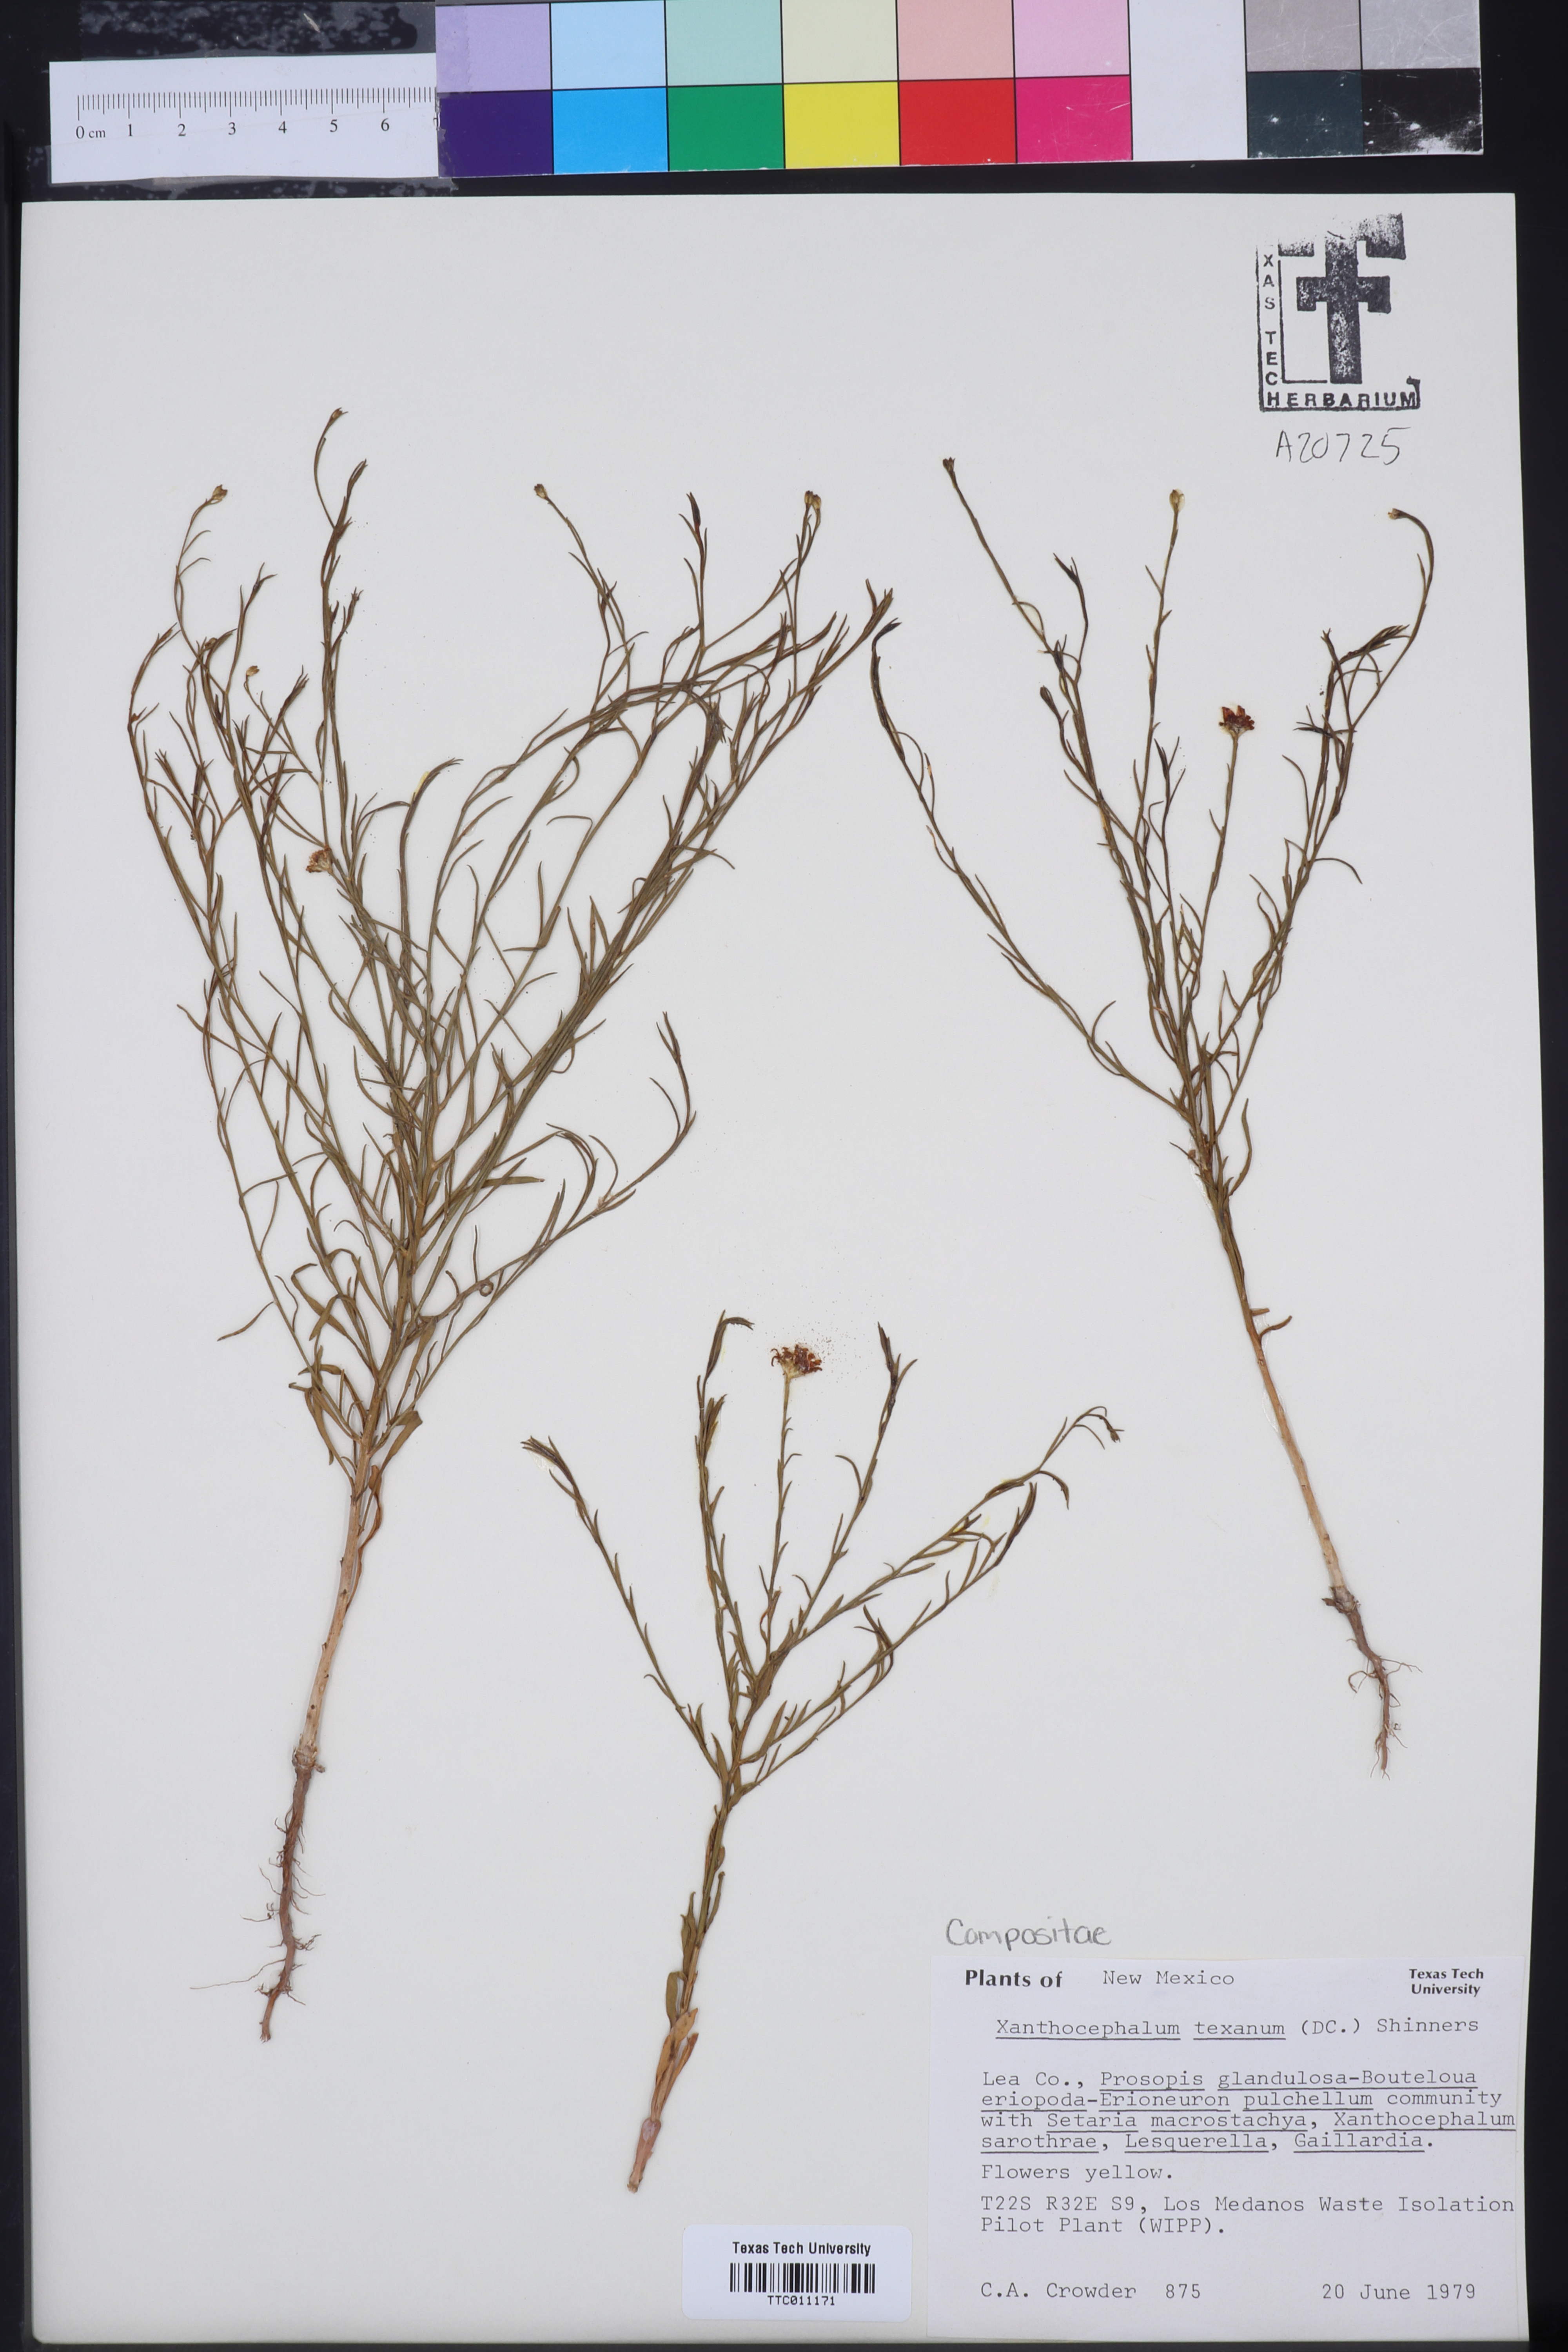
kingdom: Plantae
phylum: Tracheophyta
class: Magnoliopsida
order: Asterales
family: Asteraceae
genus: Gutierrezia
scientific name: Gutierrezia texana
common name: Texas snakeweed
